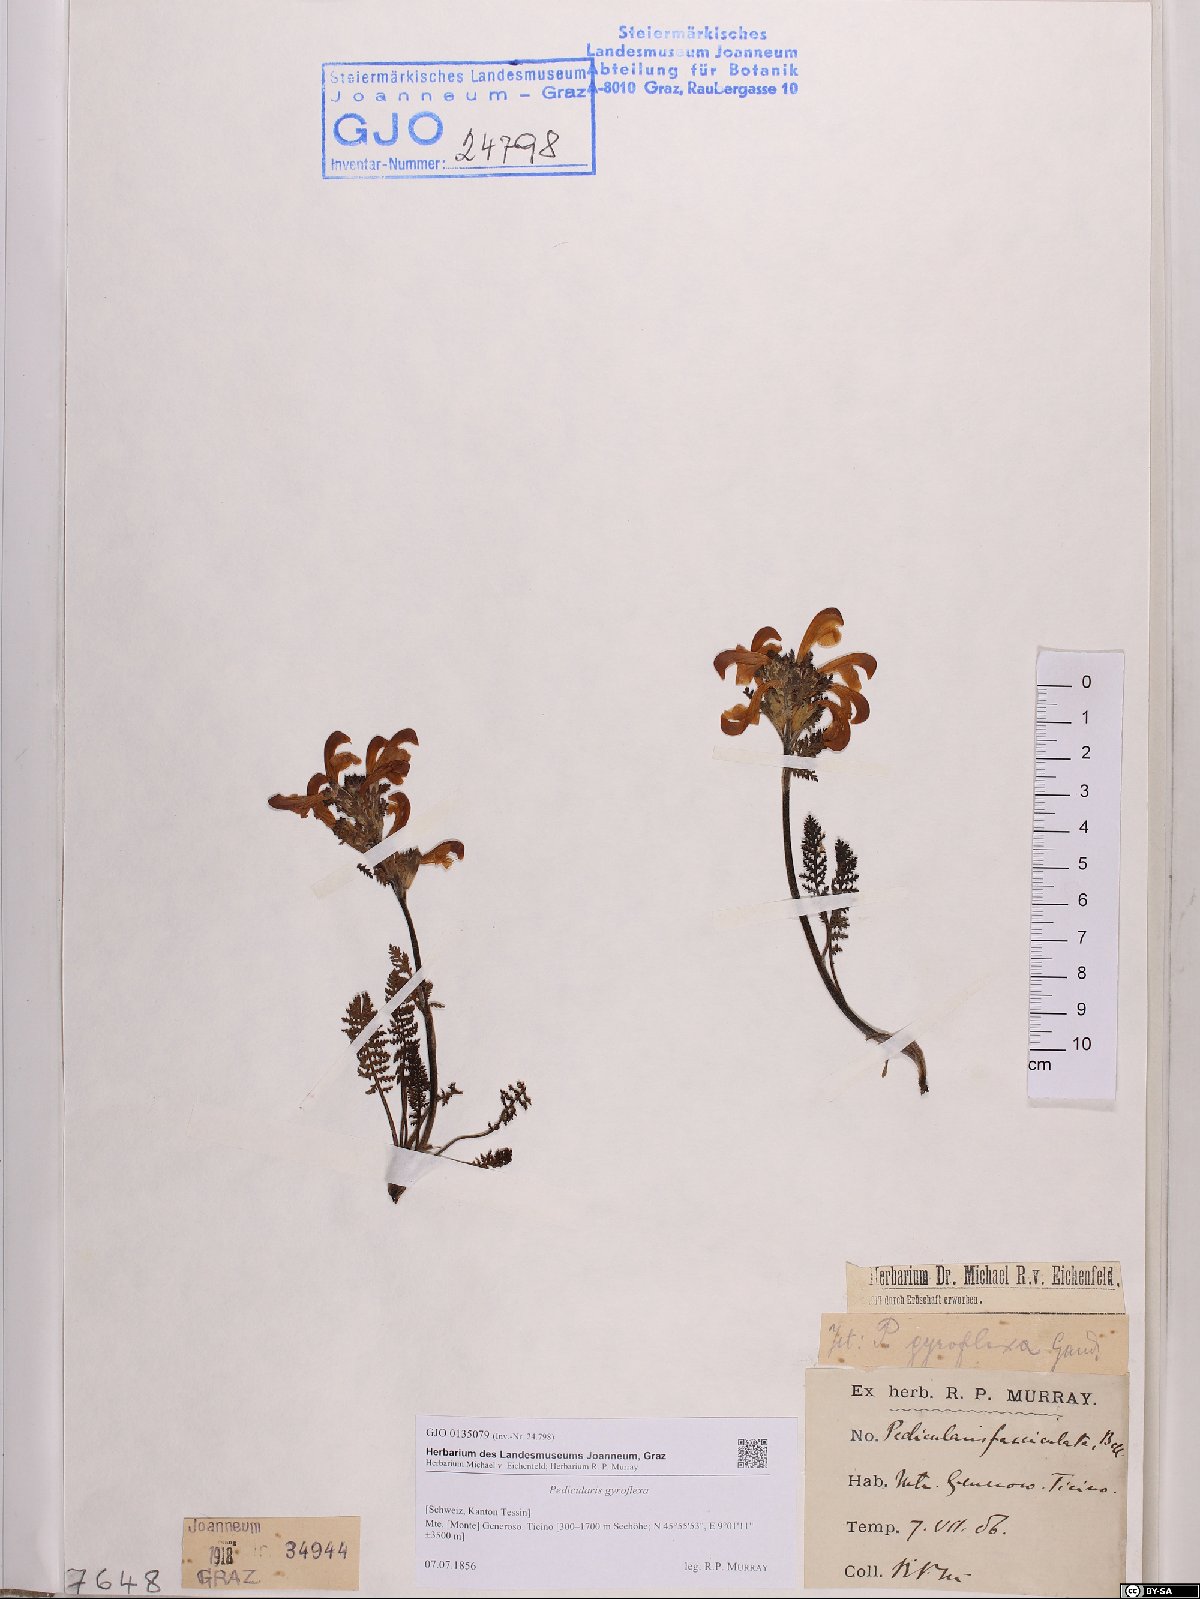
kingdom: Plantae
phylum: Tracheophyta
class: Magnoliopsida
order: Lamiales
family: Orobanchaceae
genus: Pedicularis
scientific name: Pedicularis gyroflexa
